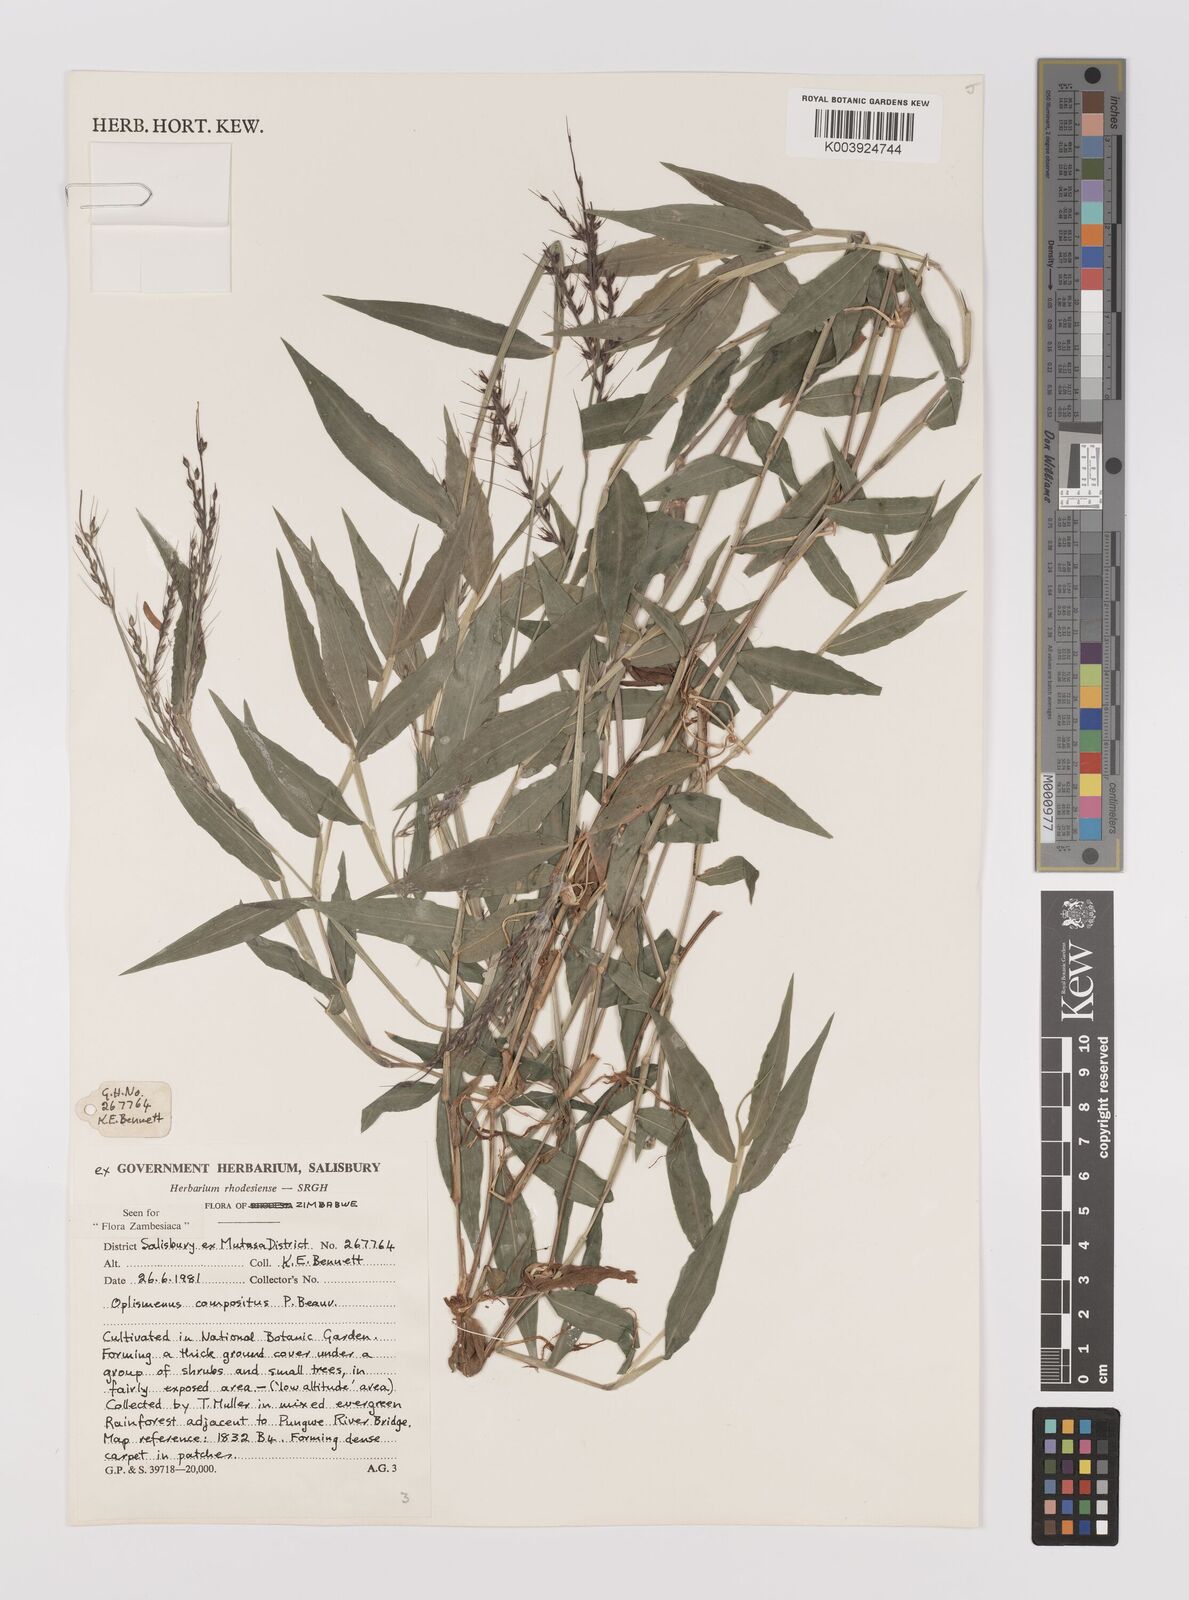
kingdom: Plantae
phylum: Tracheophyta
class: Liliopsida
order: Poales
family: Poaceae
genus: Oplismenus
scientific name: Oplismenus compositus
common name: Running mountain grass
